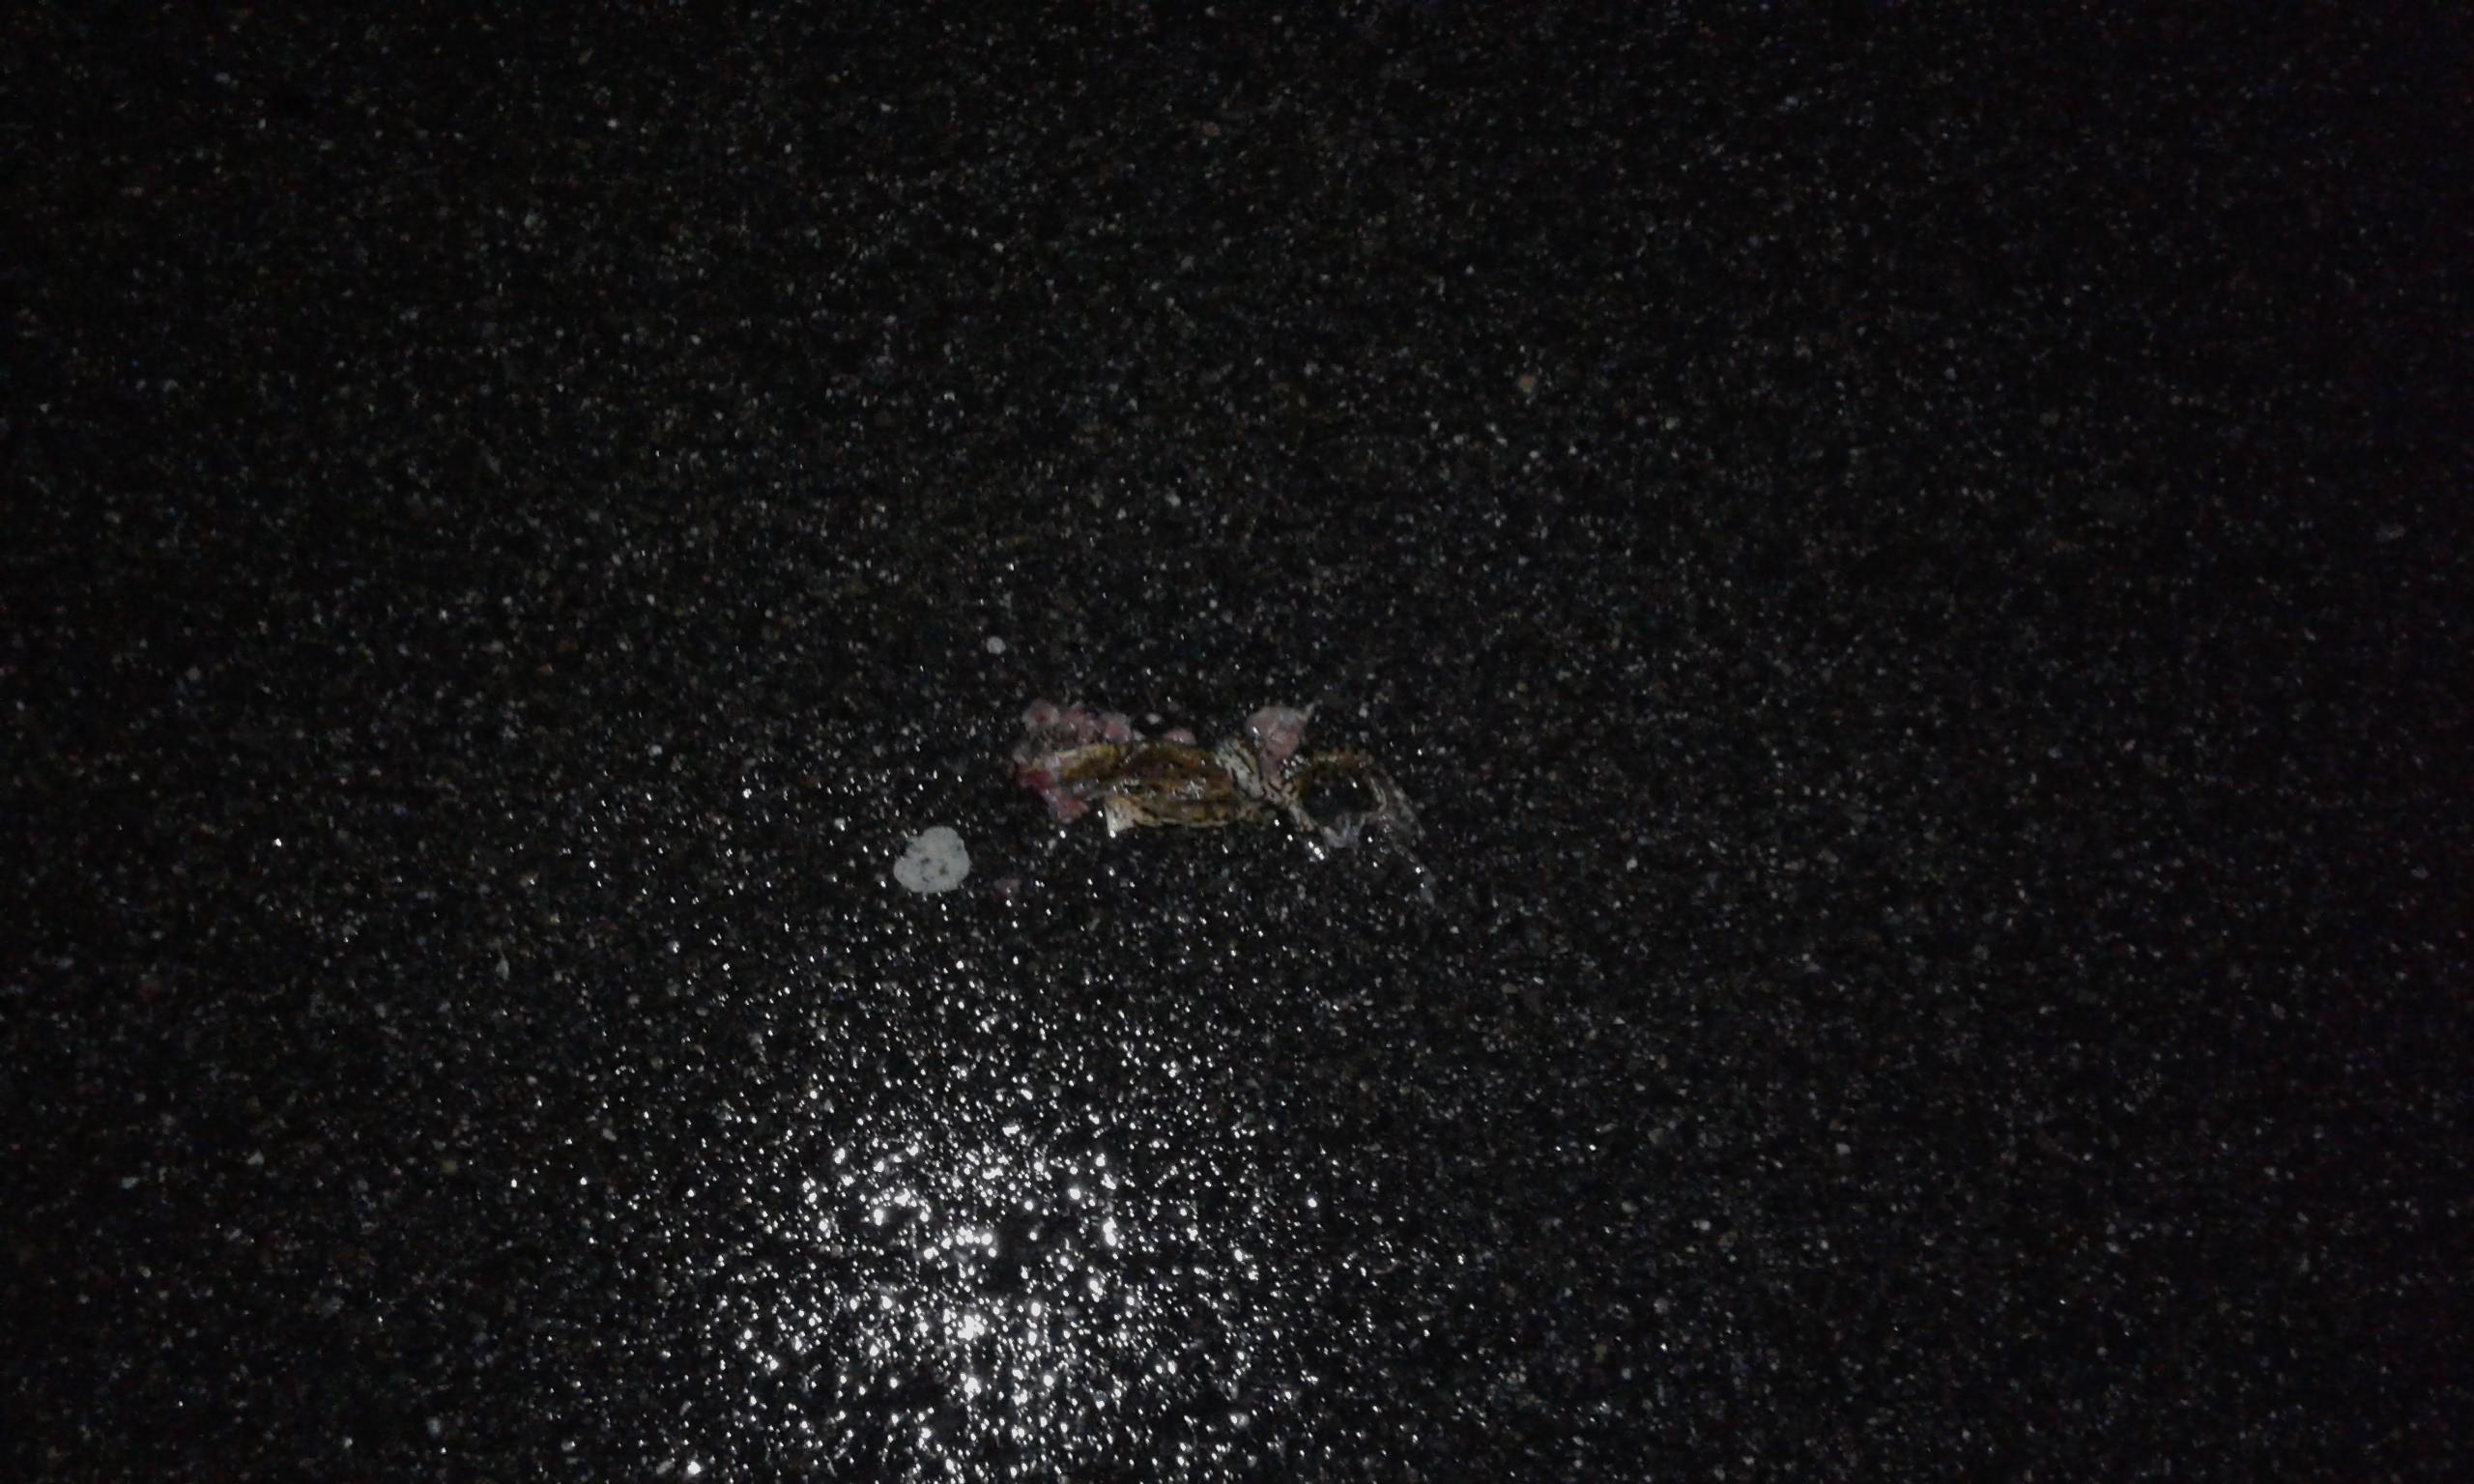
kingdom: Animalia
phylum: Chordata
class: Amphibia
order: Anura
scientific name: Anura
